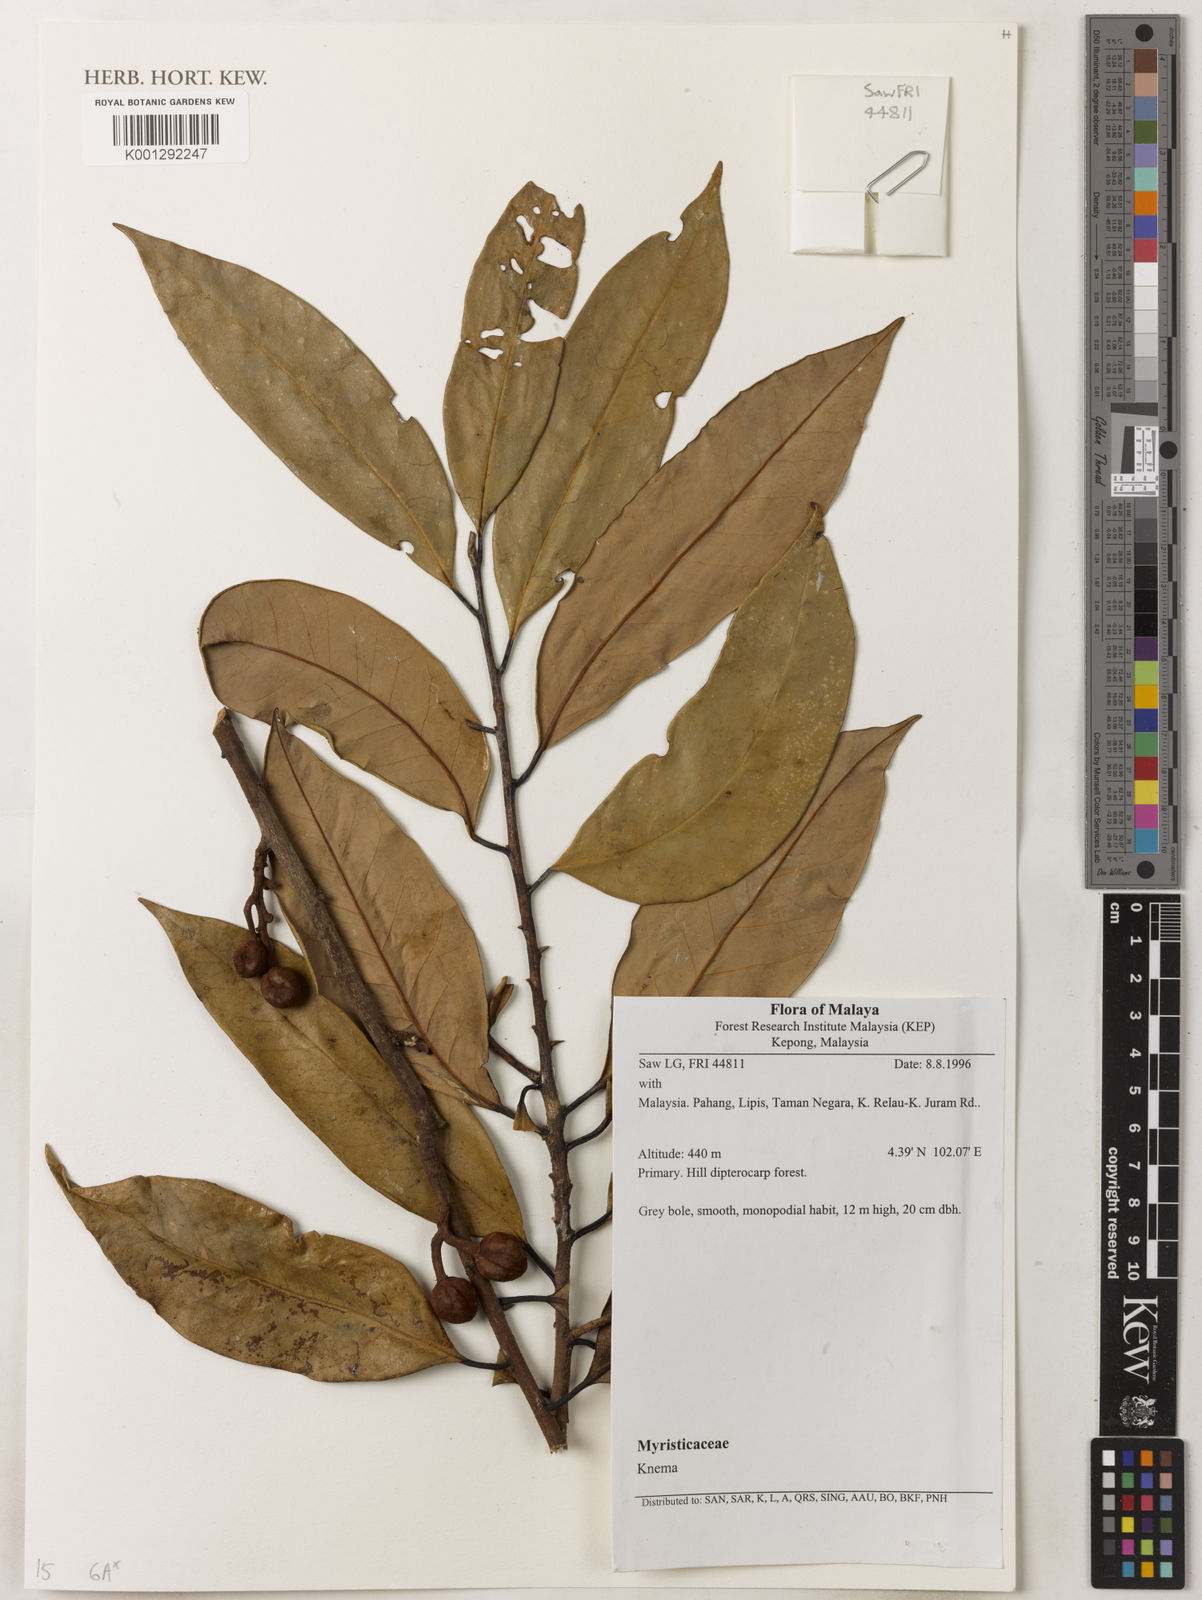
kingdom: Plantae
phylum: Tracheophyta
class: Magnoliopsida
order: Magnoliales
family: Myristicaceae
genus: Knema
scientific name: Knema
